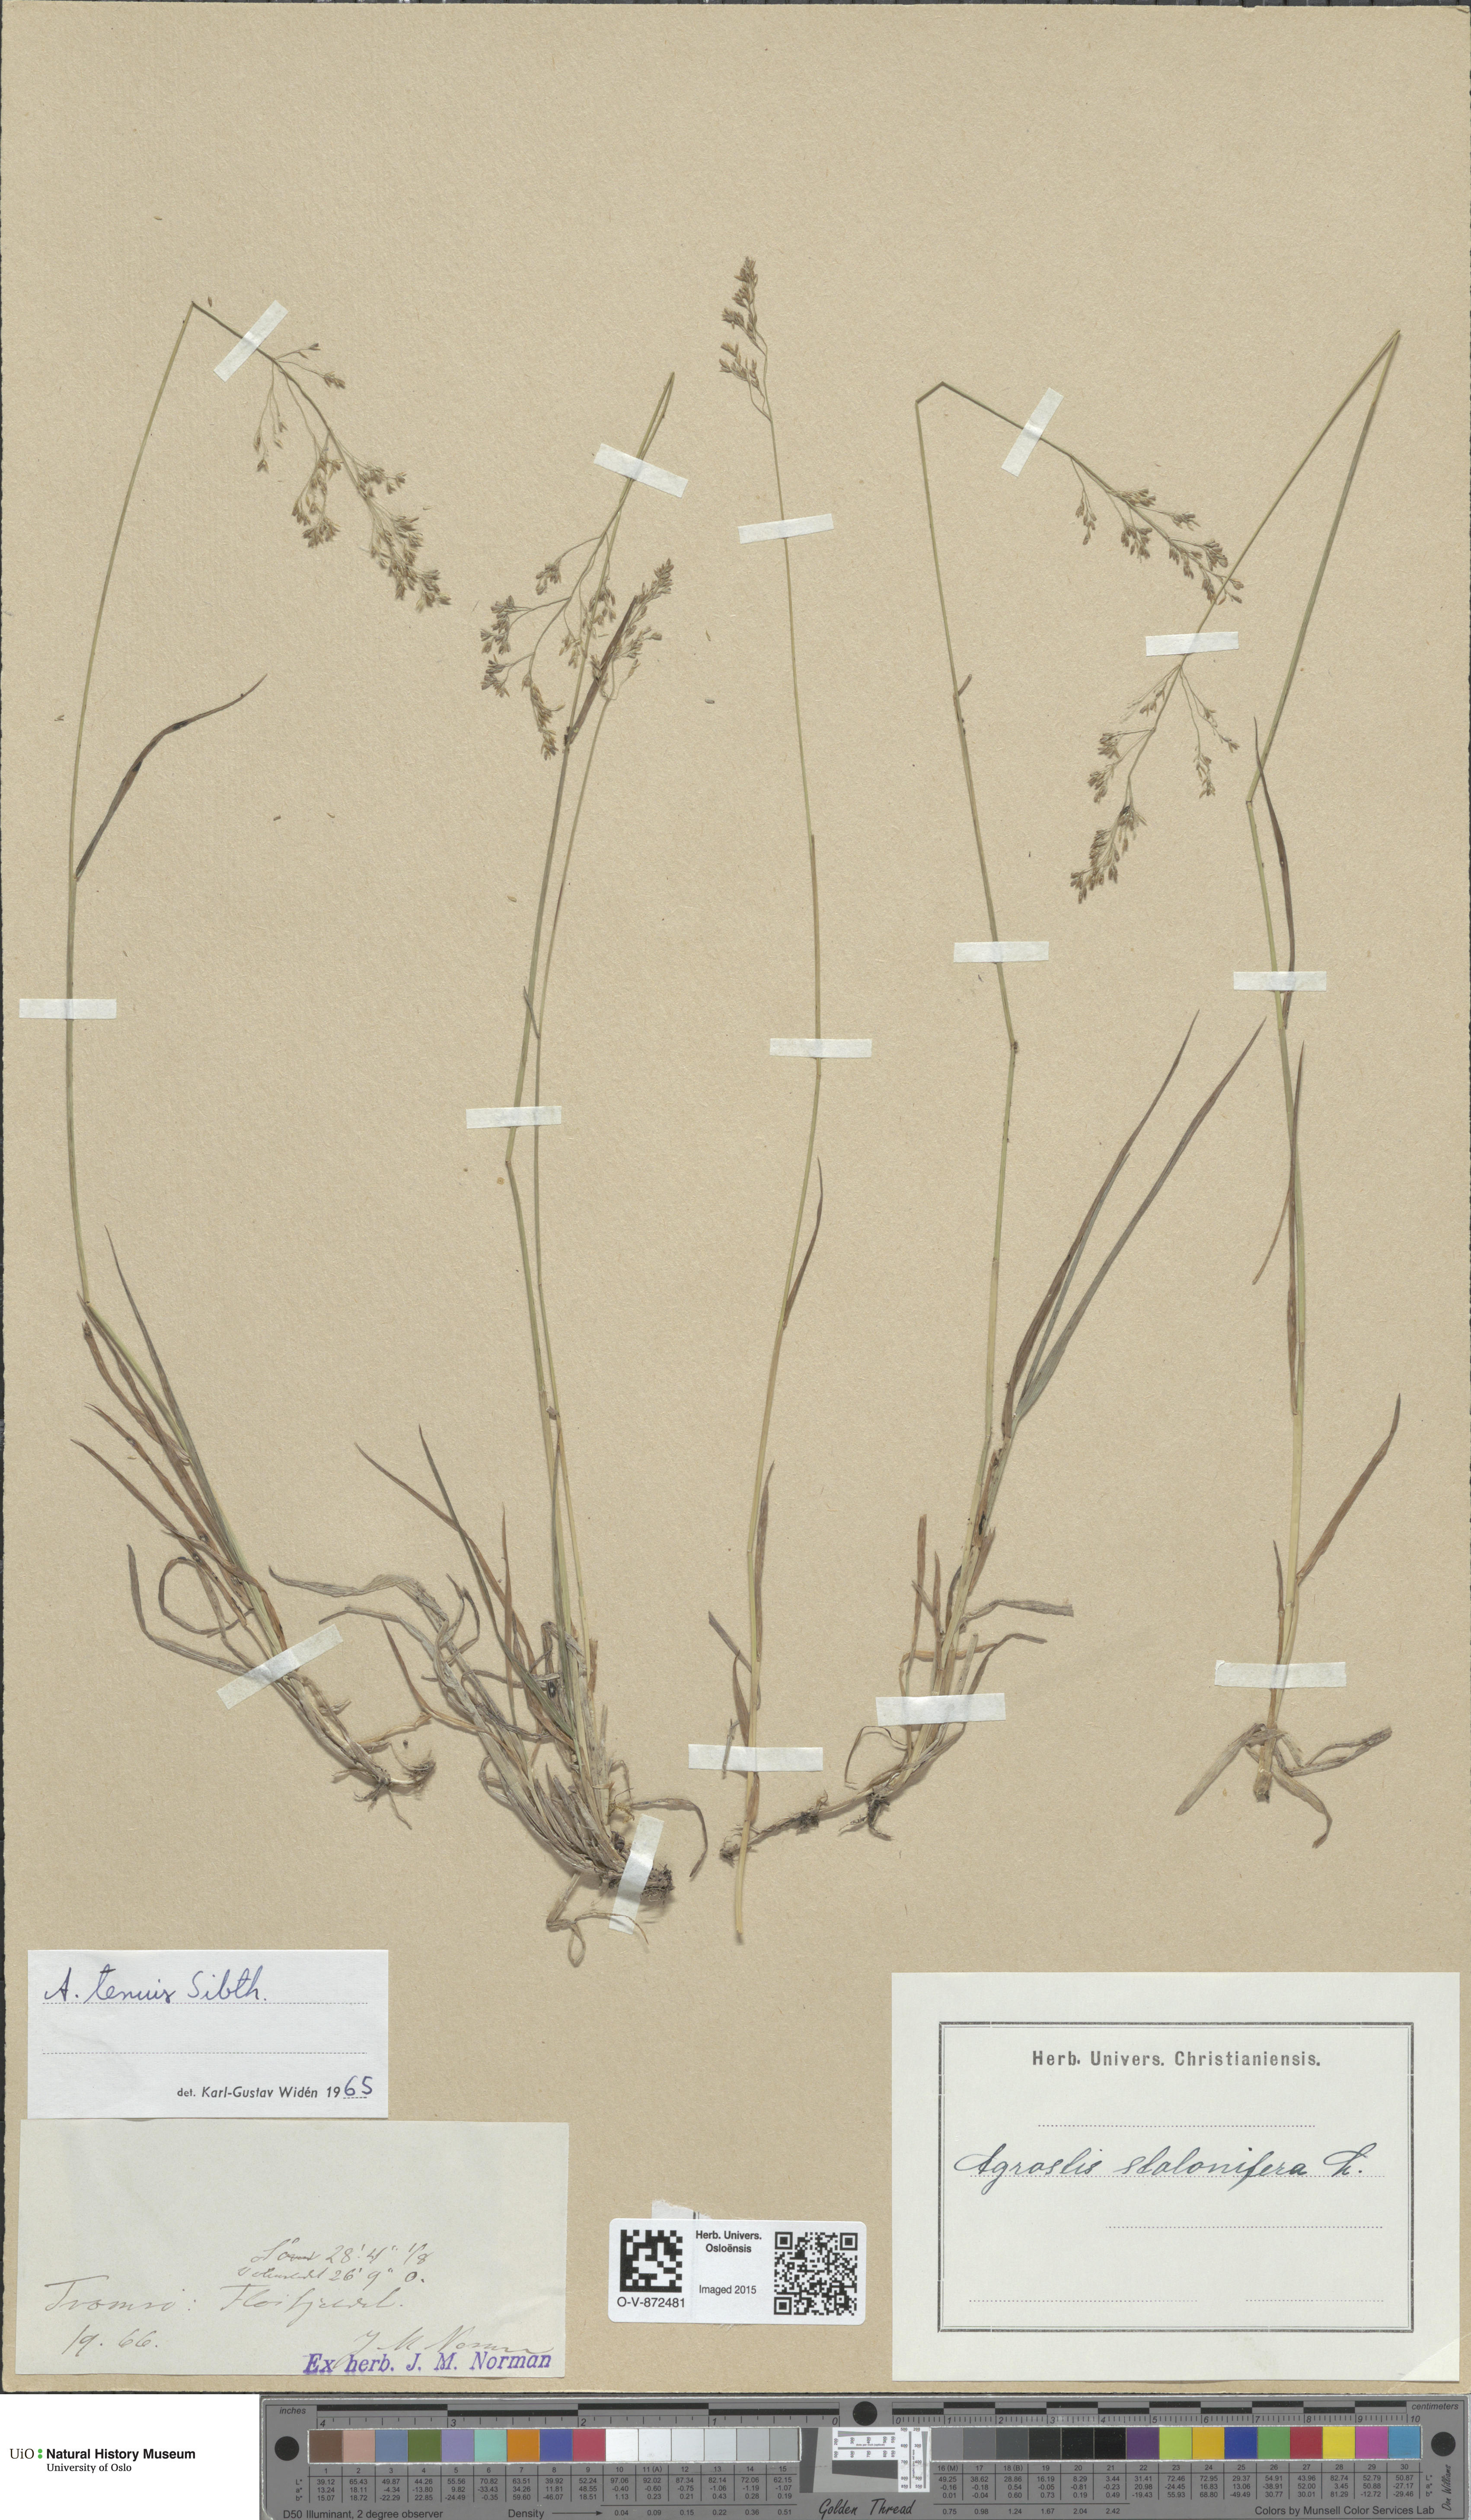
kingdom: Plantae
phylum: Tracheophyta
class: Liliopsida
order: Poales
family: Poaceae
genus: Agrostis
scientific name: Agrostis capillaris
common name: Colonial bentgrass
